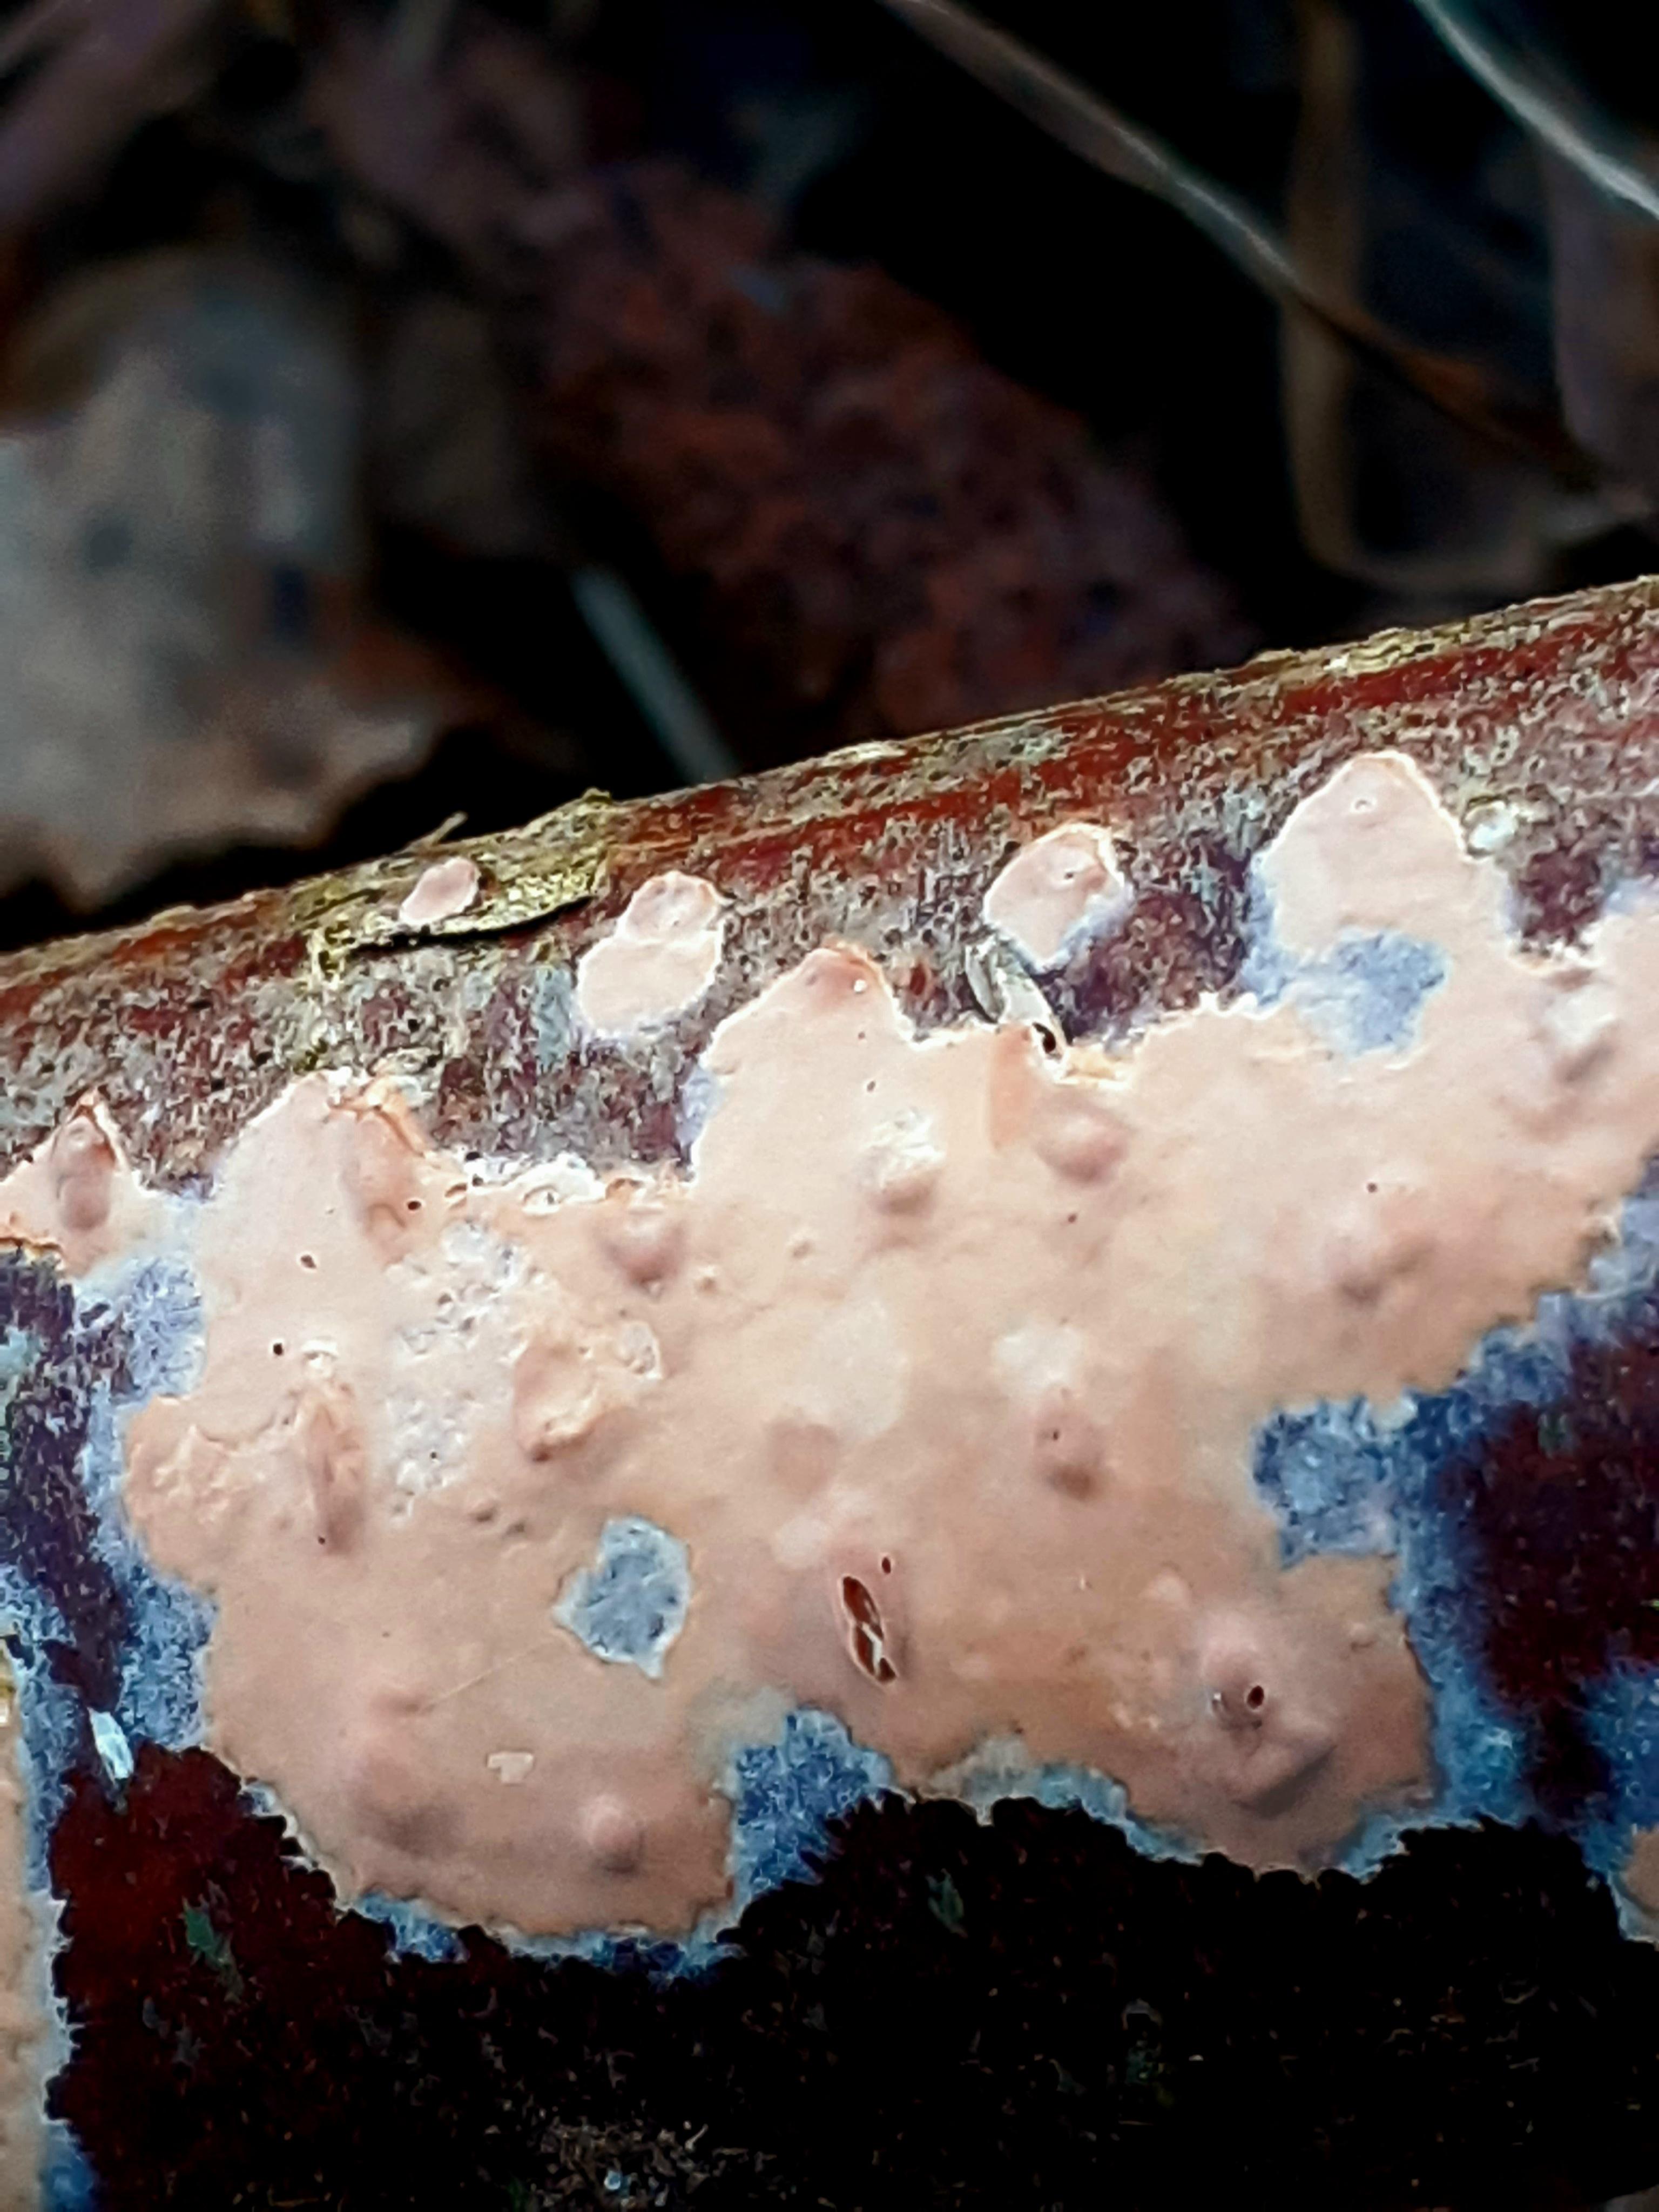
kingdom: Fungi
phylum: Basidiomycota
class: Agaricomycetes
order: Russulales
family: Peniophoraceae
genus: Peniophora
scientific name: Peniophora incarnata
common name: laksefarvet voksskind
